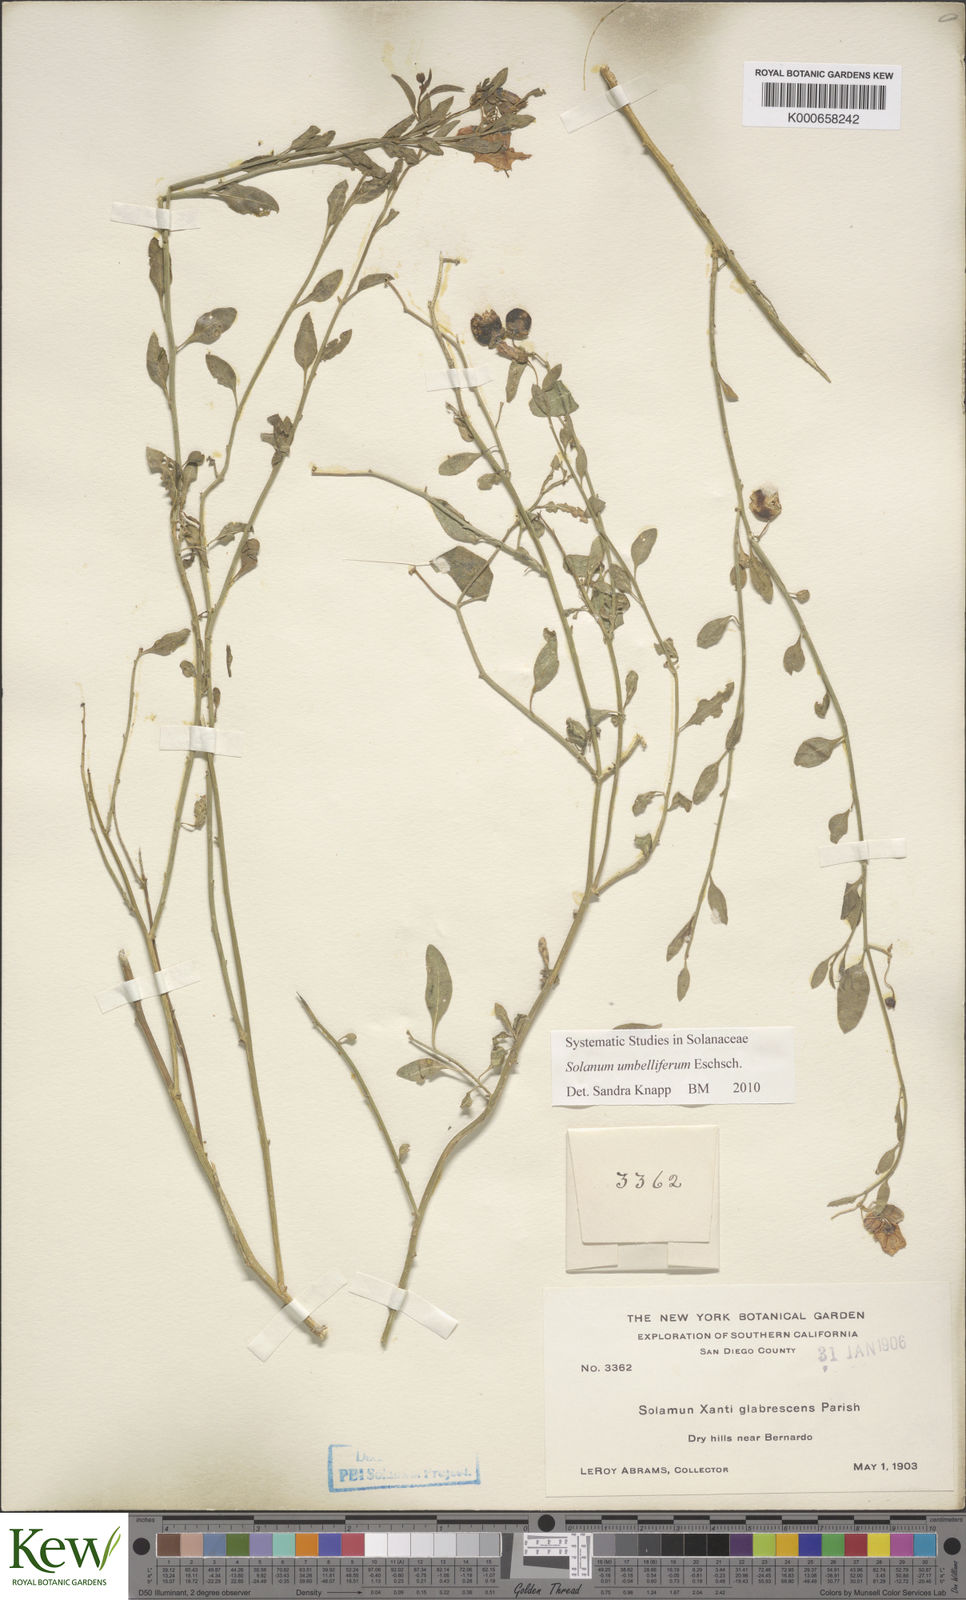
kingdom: Plantae
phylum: Tracheophyta
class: Magnoliopsida
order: Solanales
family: Solanaceae
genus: Solanum
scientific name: Solanum umbelliferum
